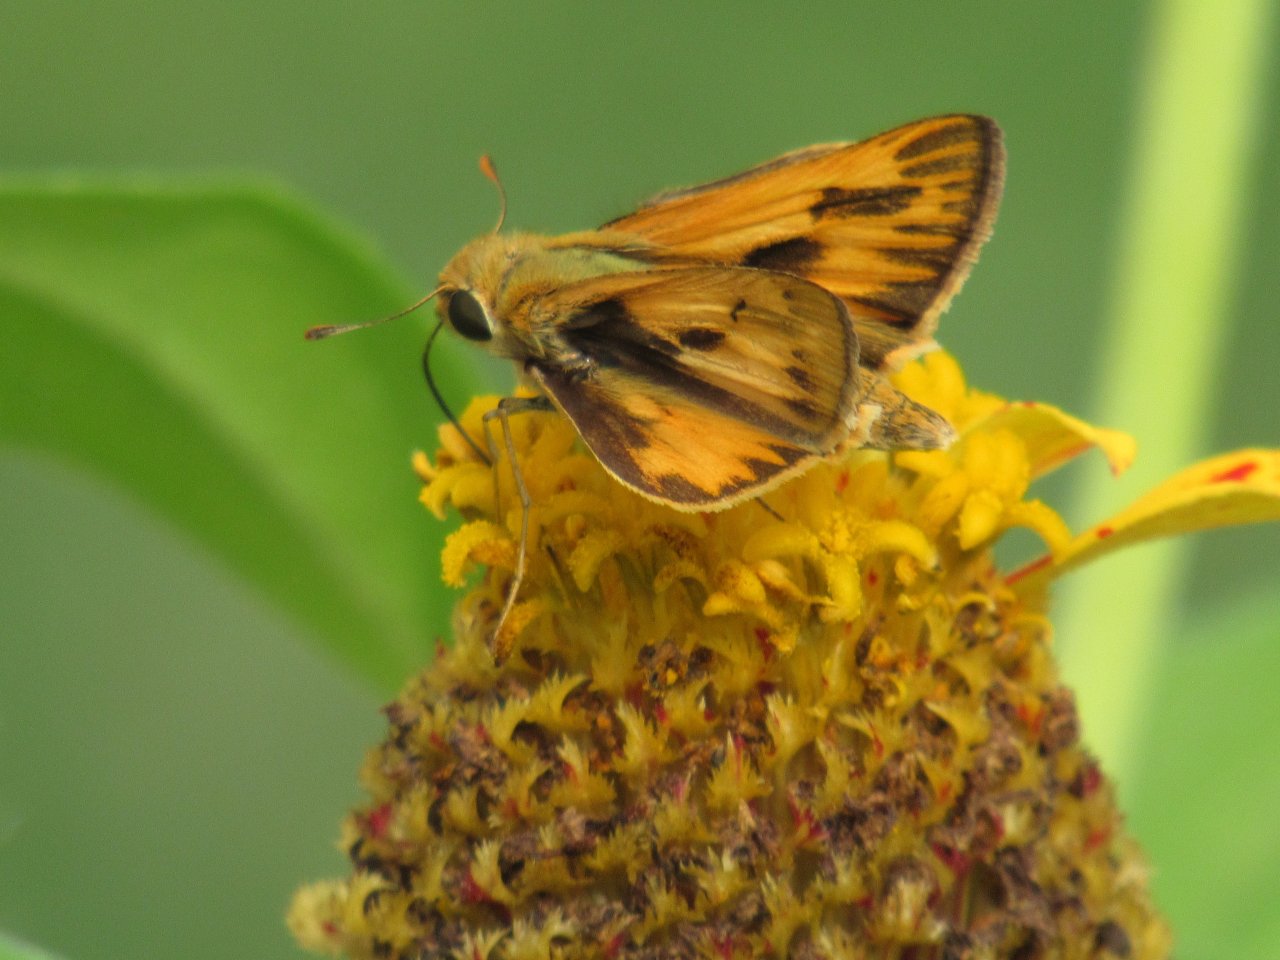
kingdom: Animalia
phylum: Arthropoda
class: Insecta
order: Lepidoptera
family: Hesperiidae
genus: Hylephila
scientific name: Hylephila phyleus
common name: Fiery Skipper
